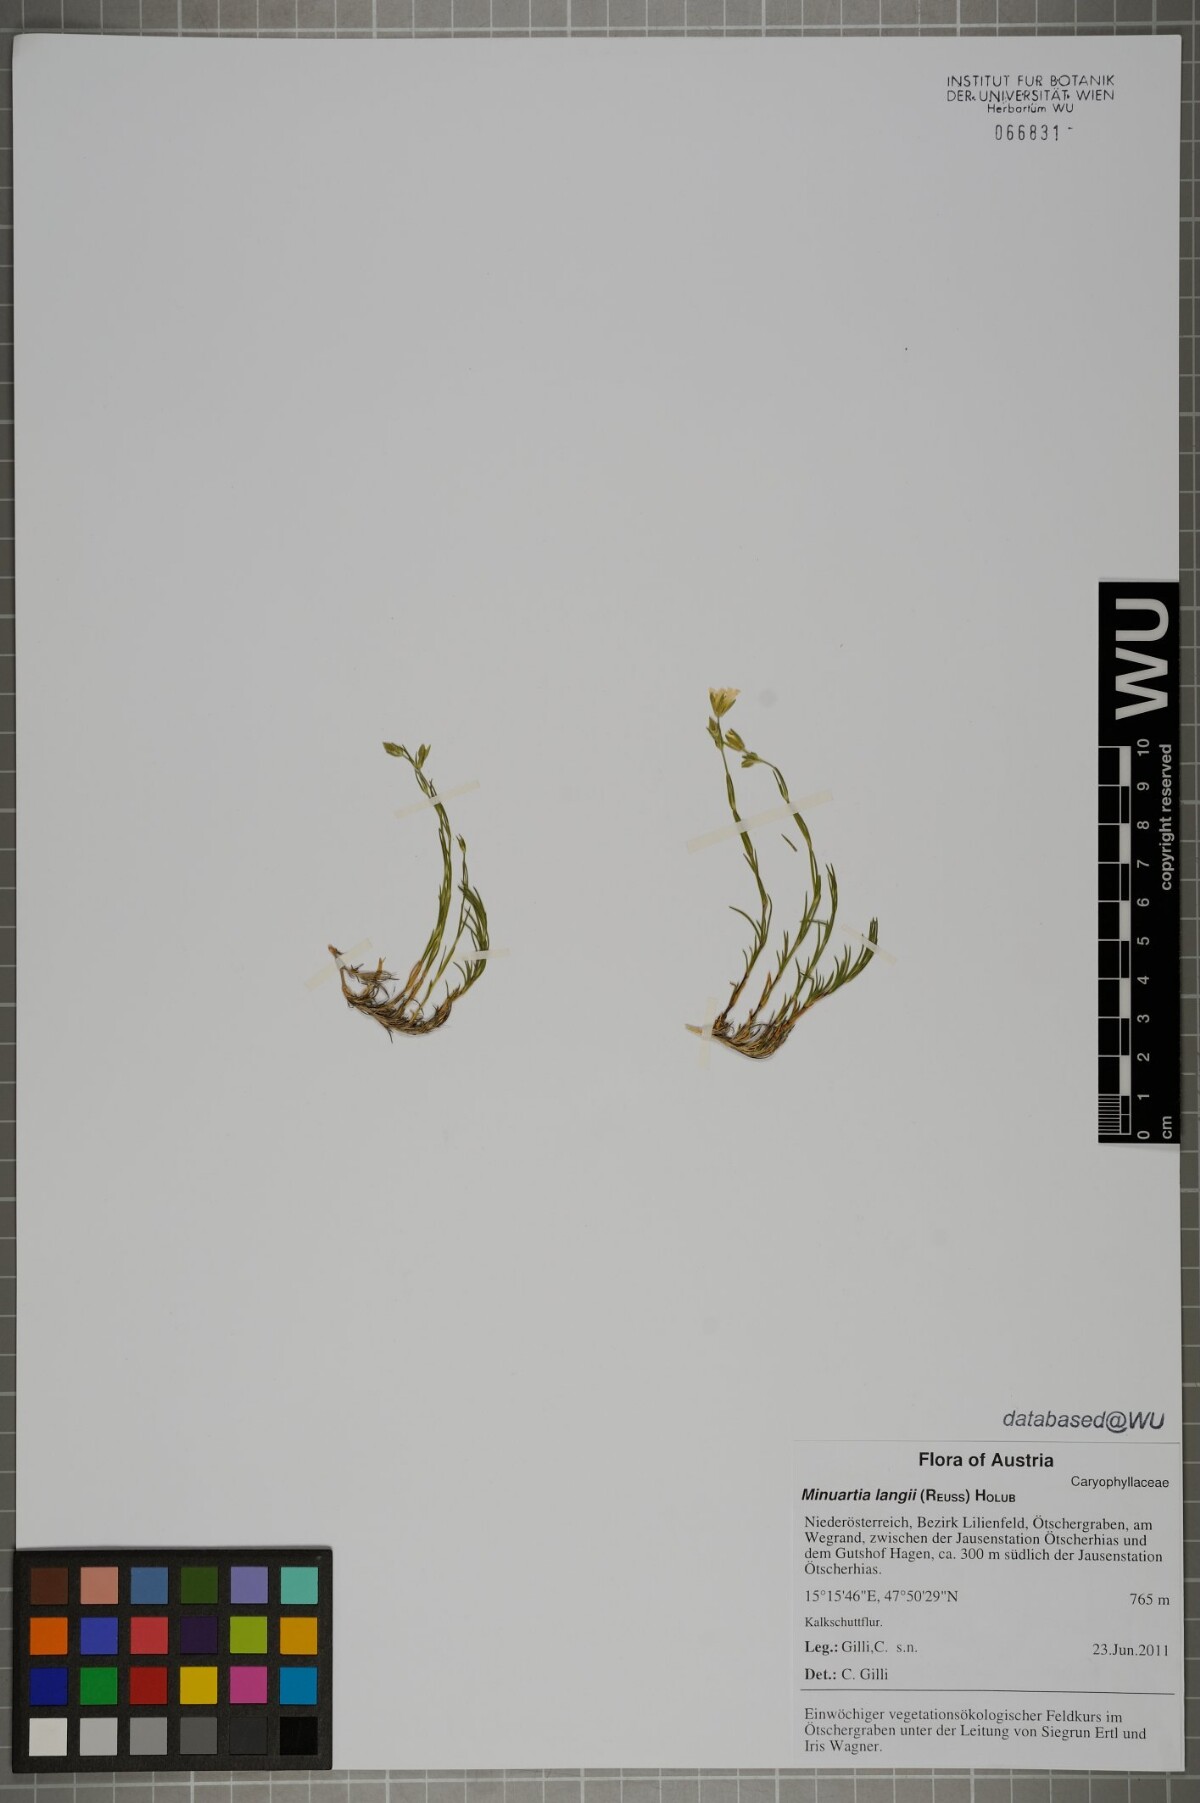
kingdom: Plantae
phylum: Tracheophyta
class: Magnoliopsida
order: Caryophyllales
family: Caryophyllaceae
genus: Cherleria
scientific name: Cherleria langii
